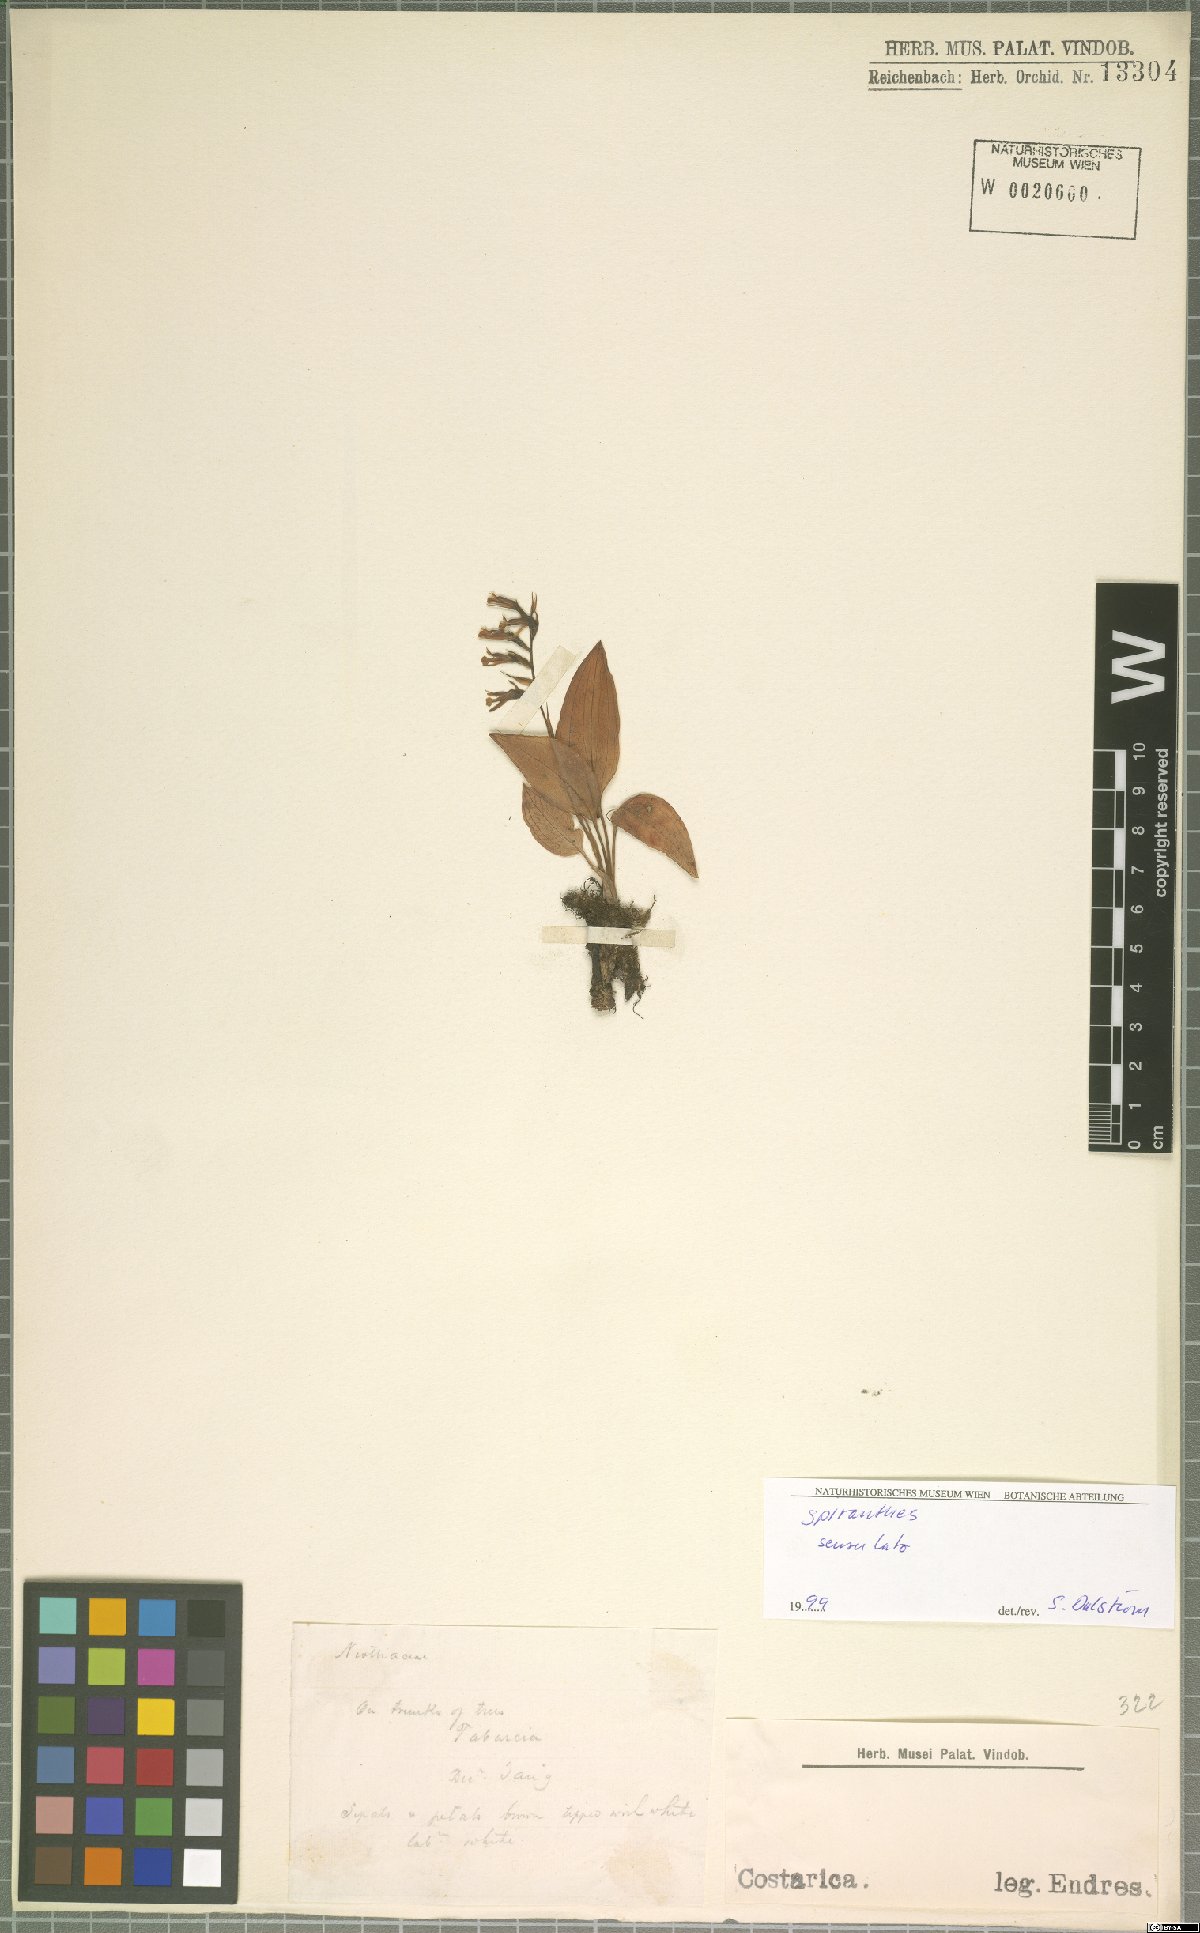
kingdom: Plantae
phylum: Tracheophyta
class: Liliopsida
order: Asparagales
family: Orchidaceae
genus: Cyclopogon
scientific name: Cyclopogon
